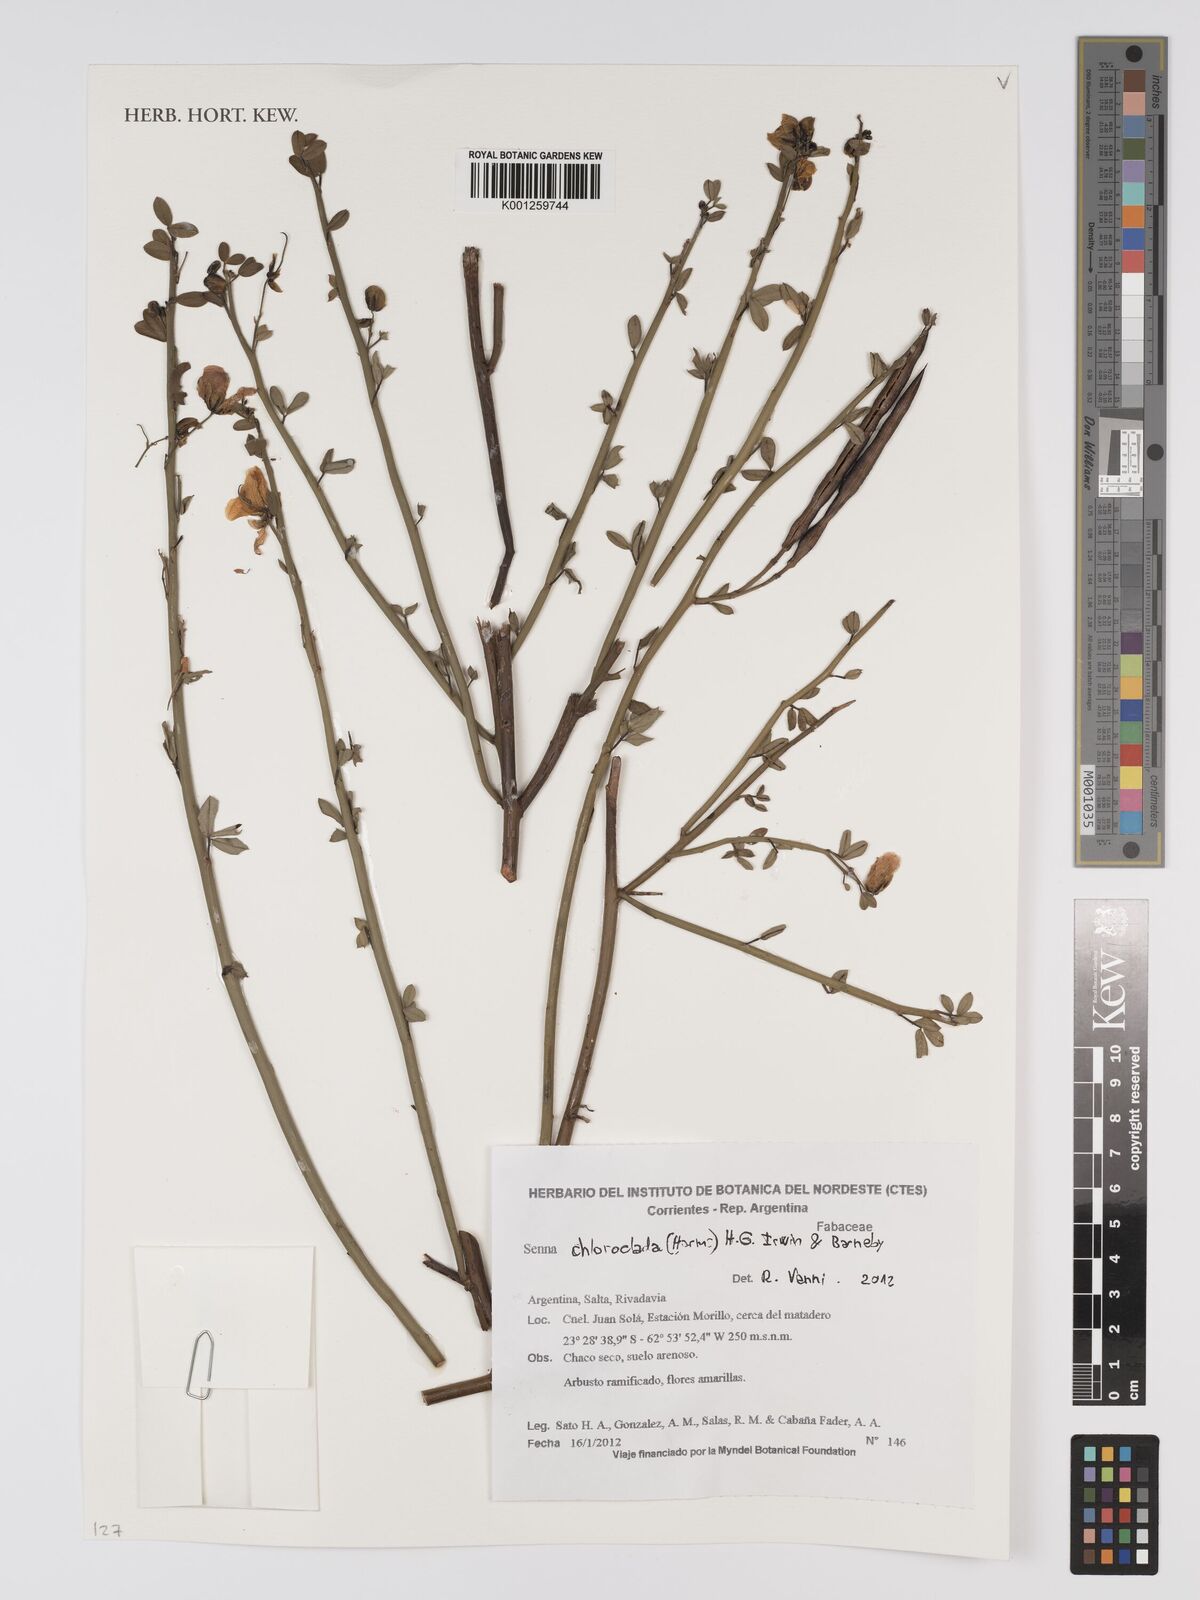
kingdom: Plantae
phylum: Tracheophyta
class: Magnoliopsida
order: Fabales
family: Fabaceae
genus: Senna
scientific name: Senna chloroclada
